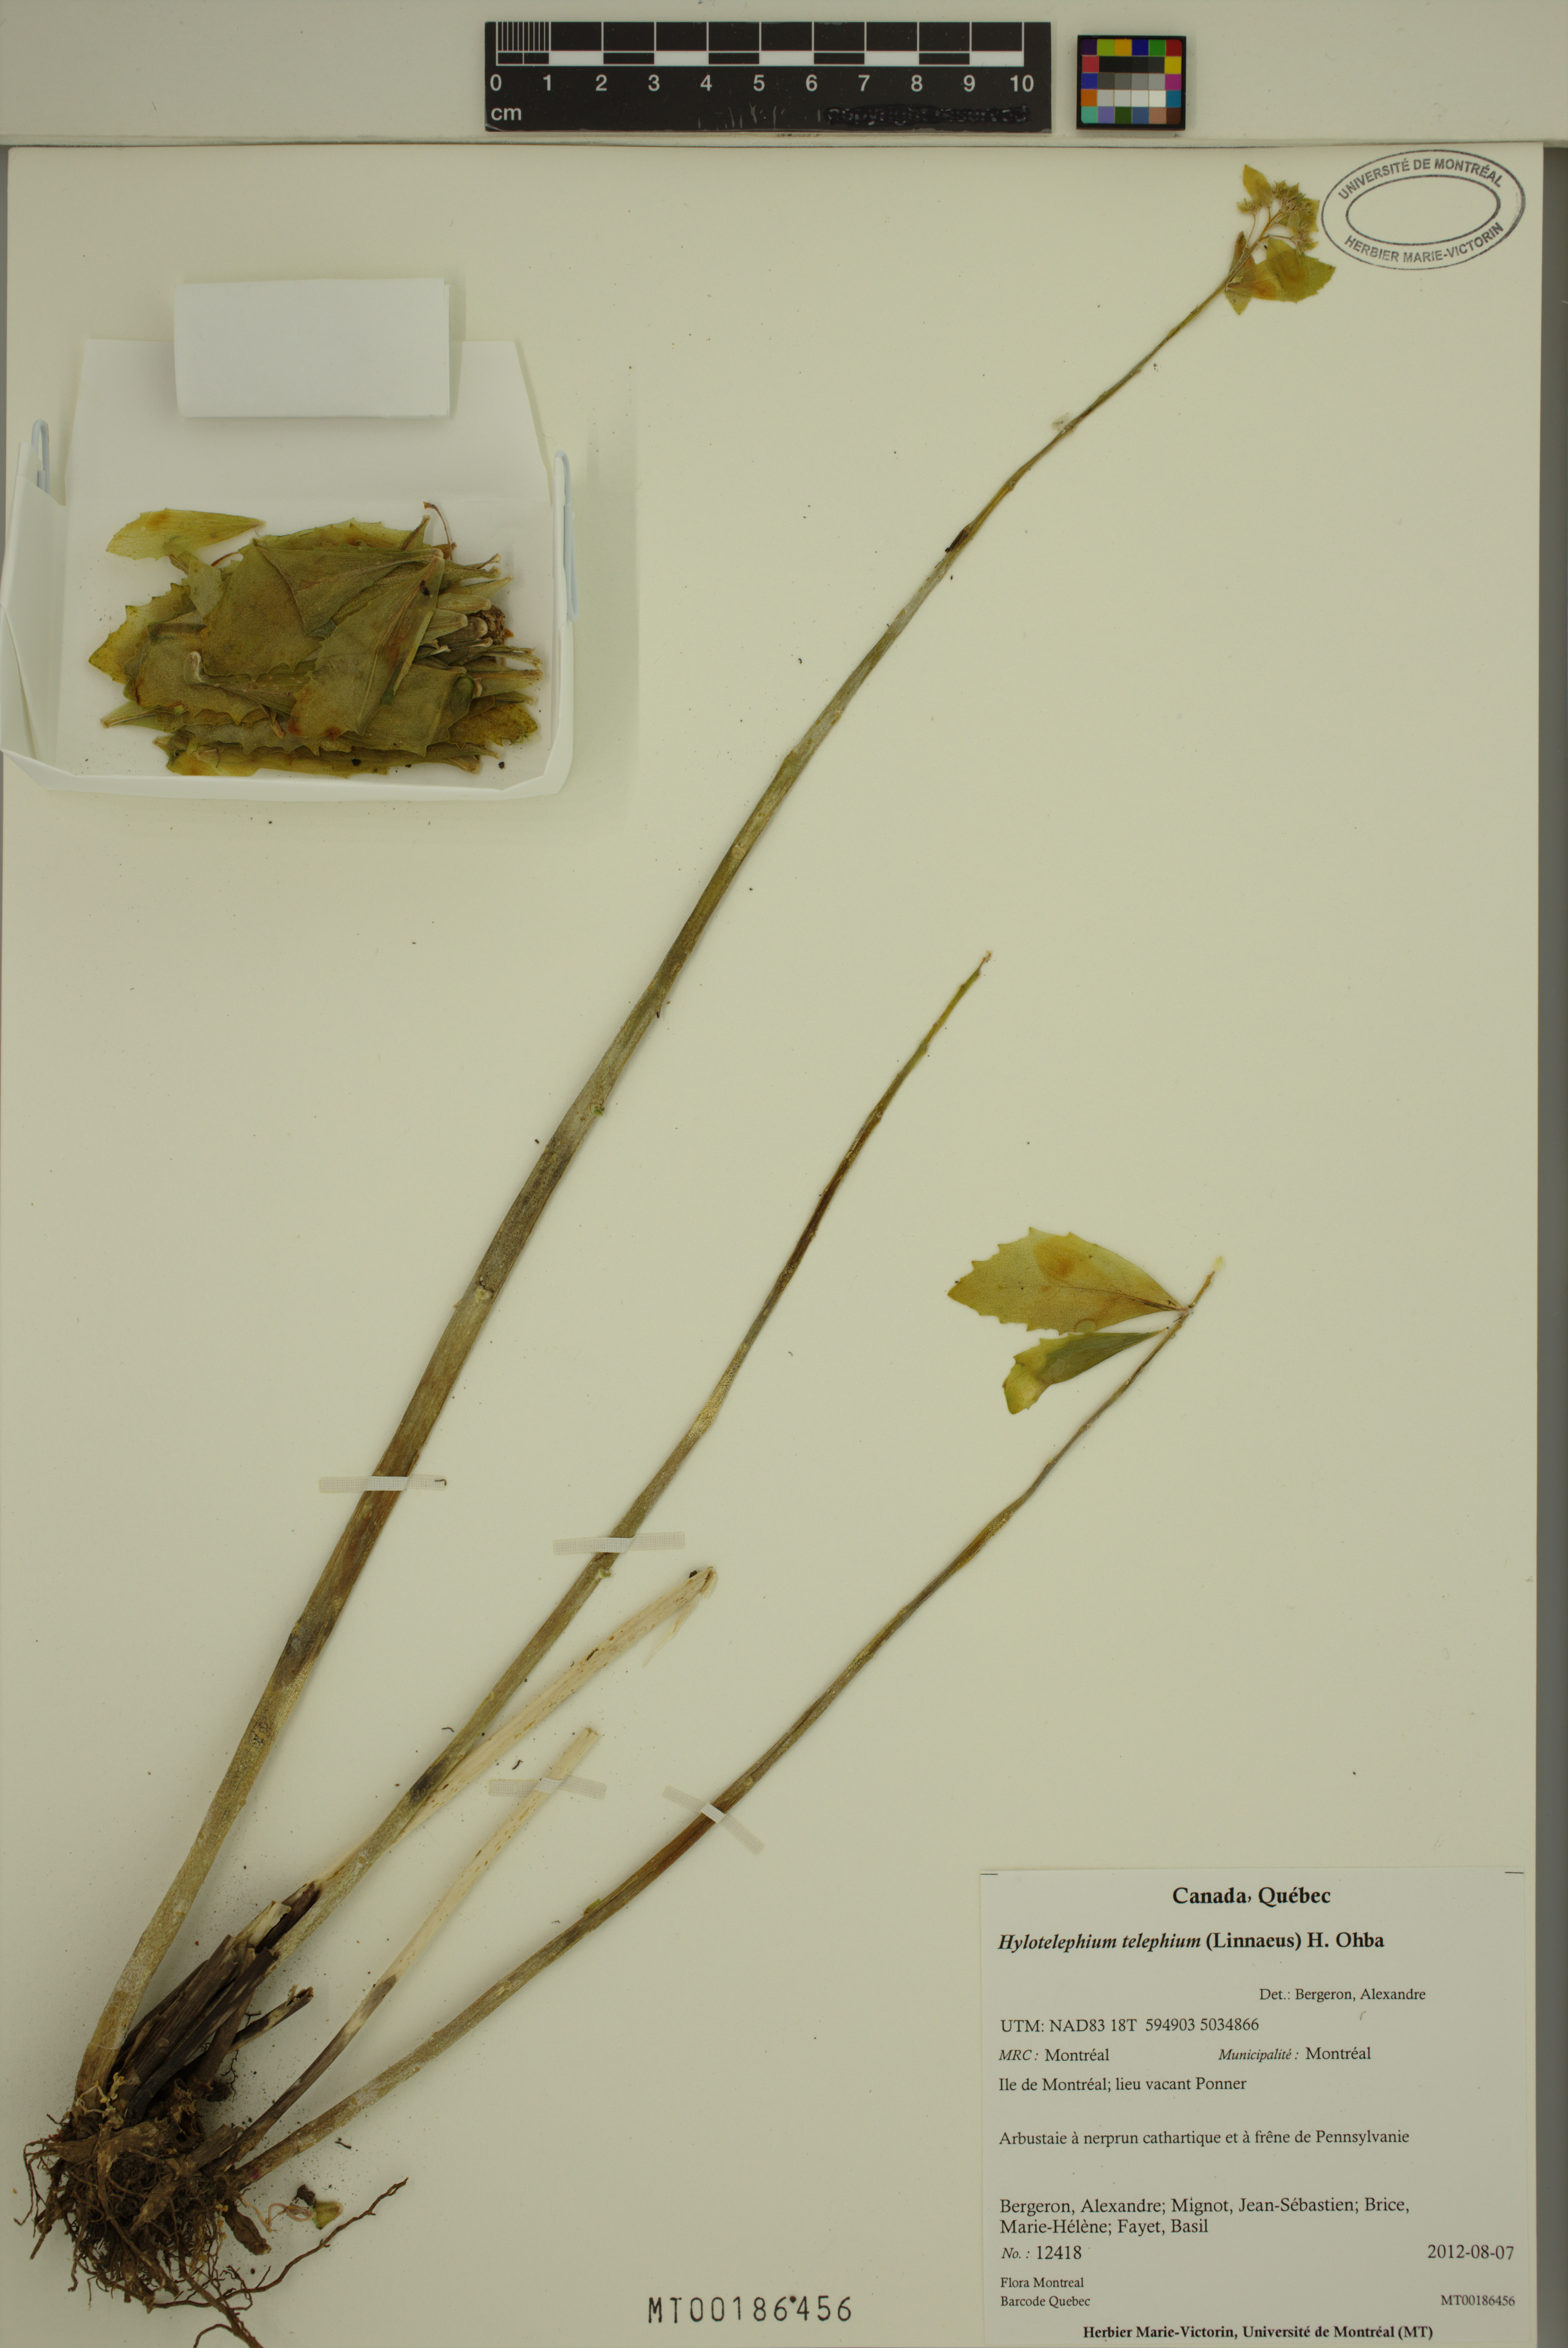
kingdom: Plantae
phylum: Tracheophyta
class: Magnoliopsida
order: Saxifragales
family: Crassulaceae
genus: Hylotelephium
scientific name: Hylotelephium telephium
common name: Live-forever
